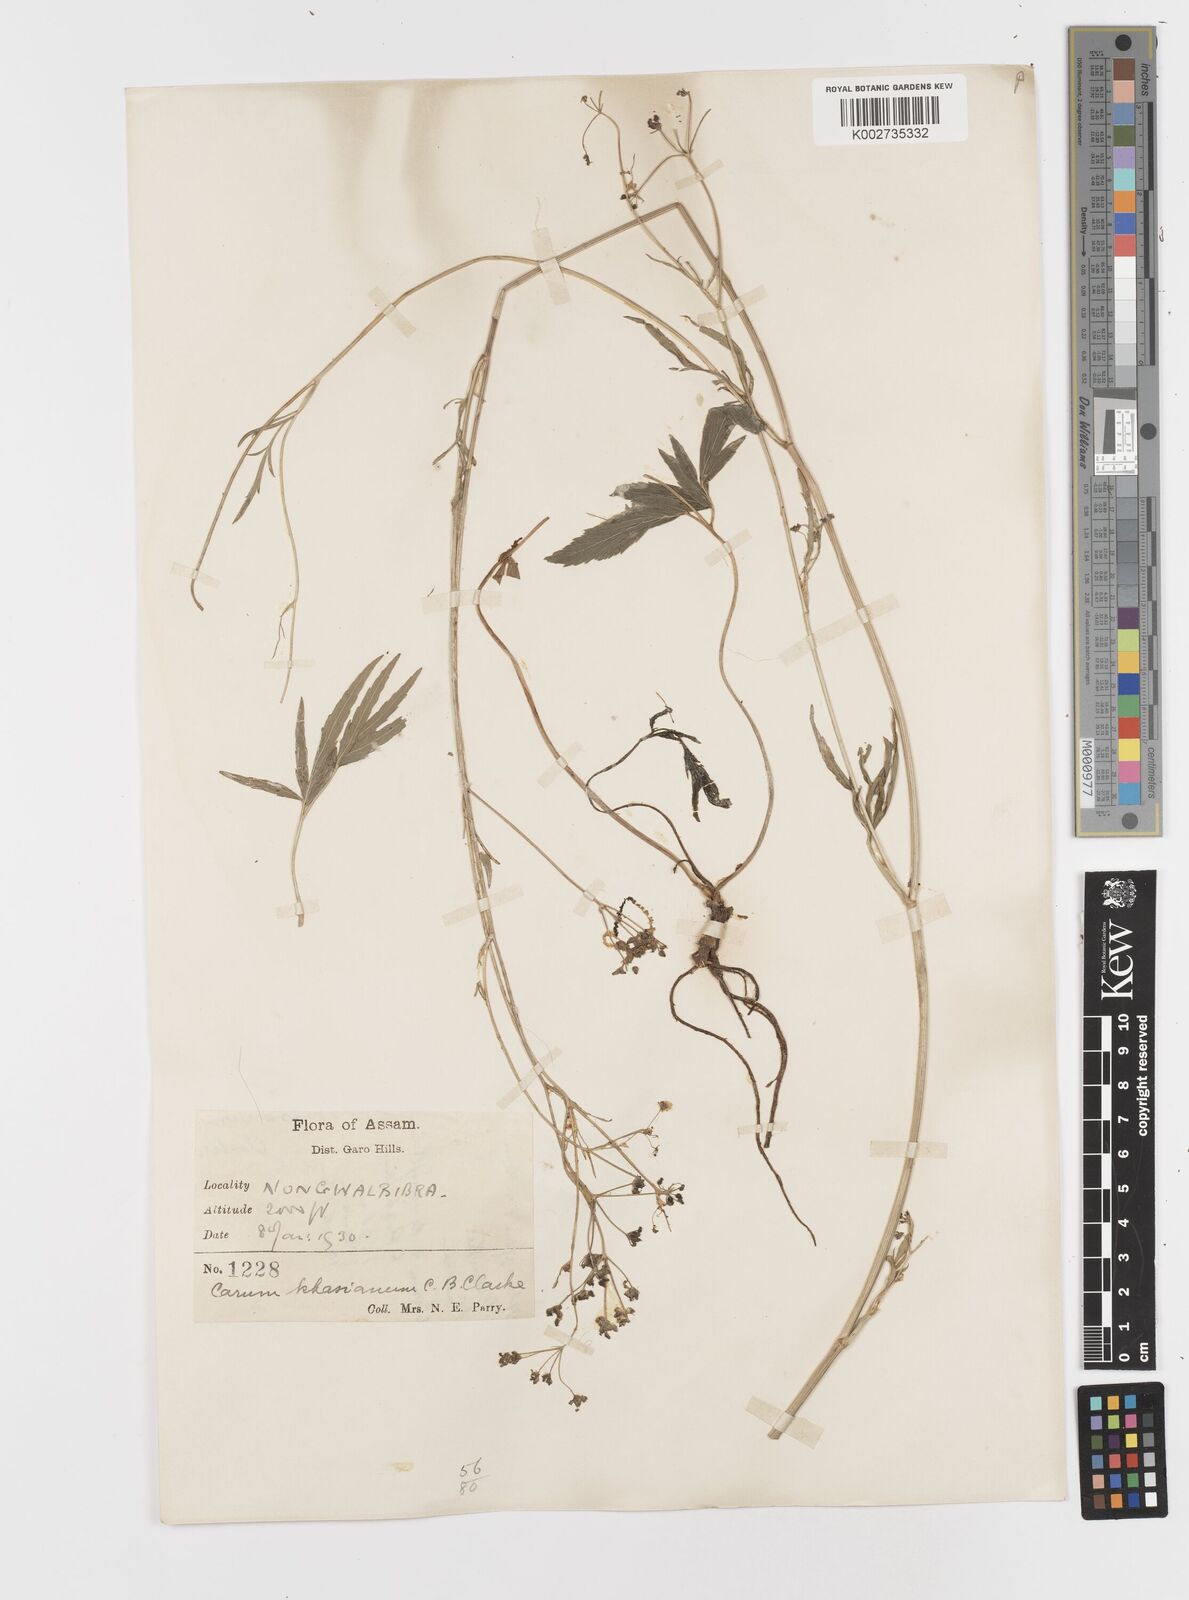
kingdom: Plantae
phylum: Tracheophyta
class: Magnoliopsida
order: Apiales
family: Apiaceae
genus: Trachyspermum
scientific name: Trachyspermum khasianum
